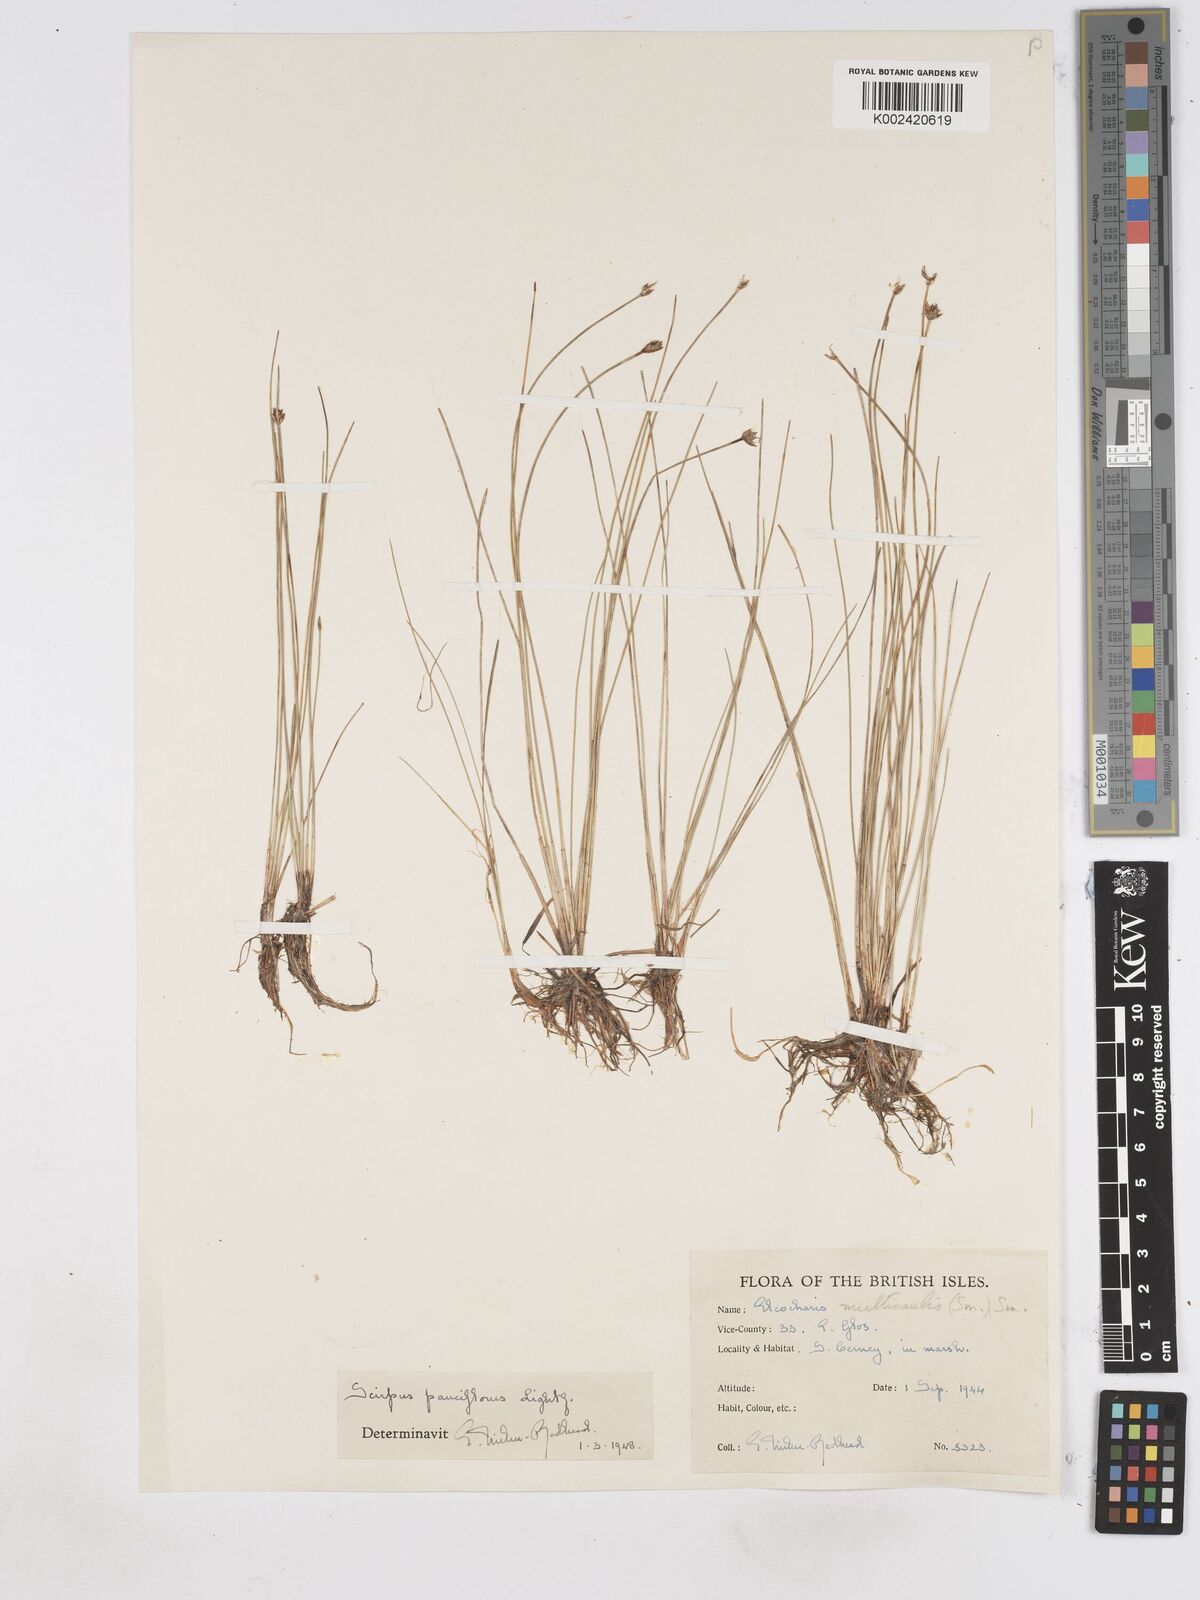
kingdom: Plantae
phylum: Tracheophyta
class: Liliopsida
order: Poales
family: Cyperaceae
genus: Eleocharis
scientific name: Eleocharis quinqueflora
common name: Few-flowered spike-rush
